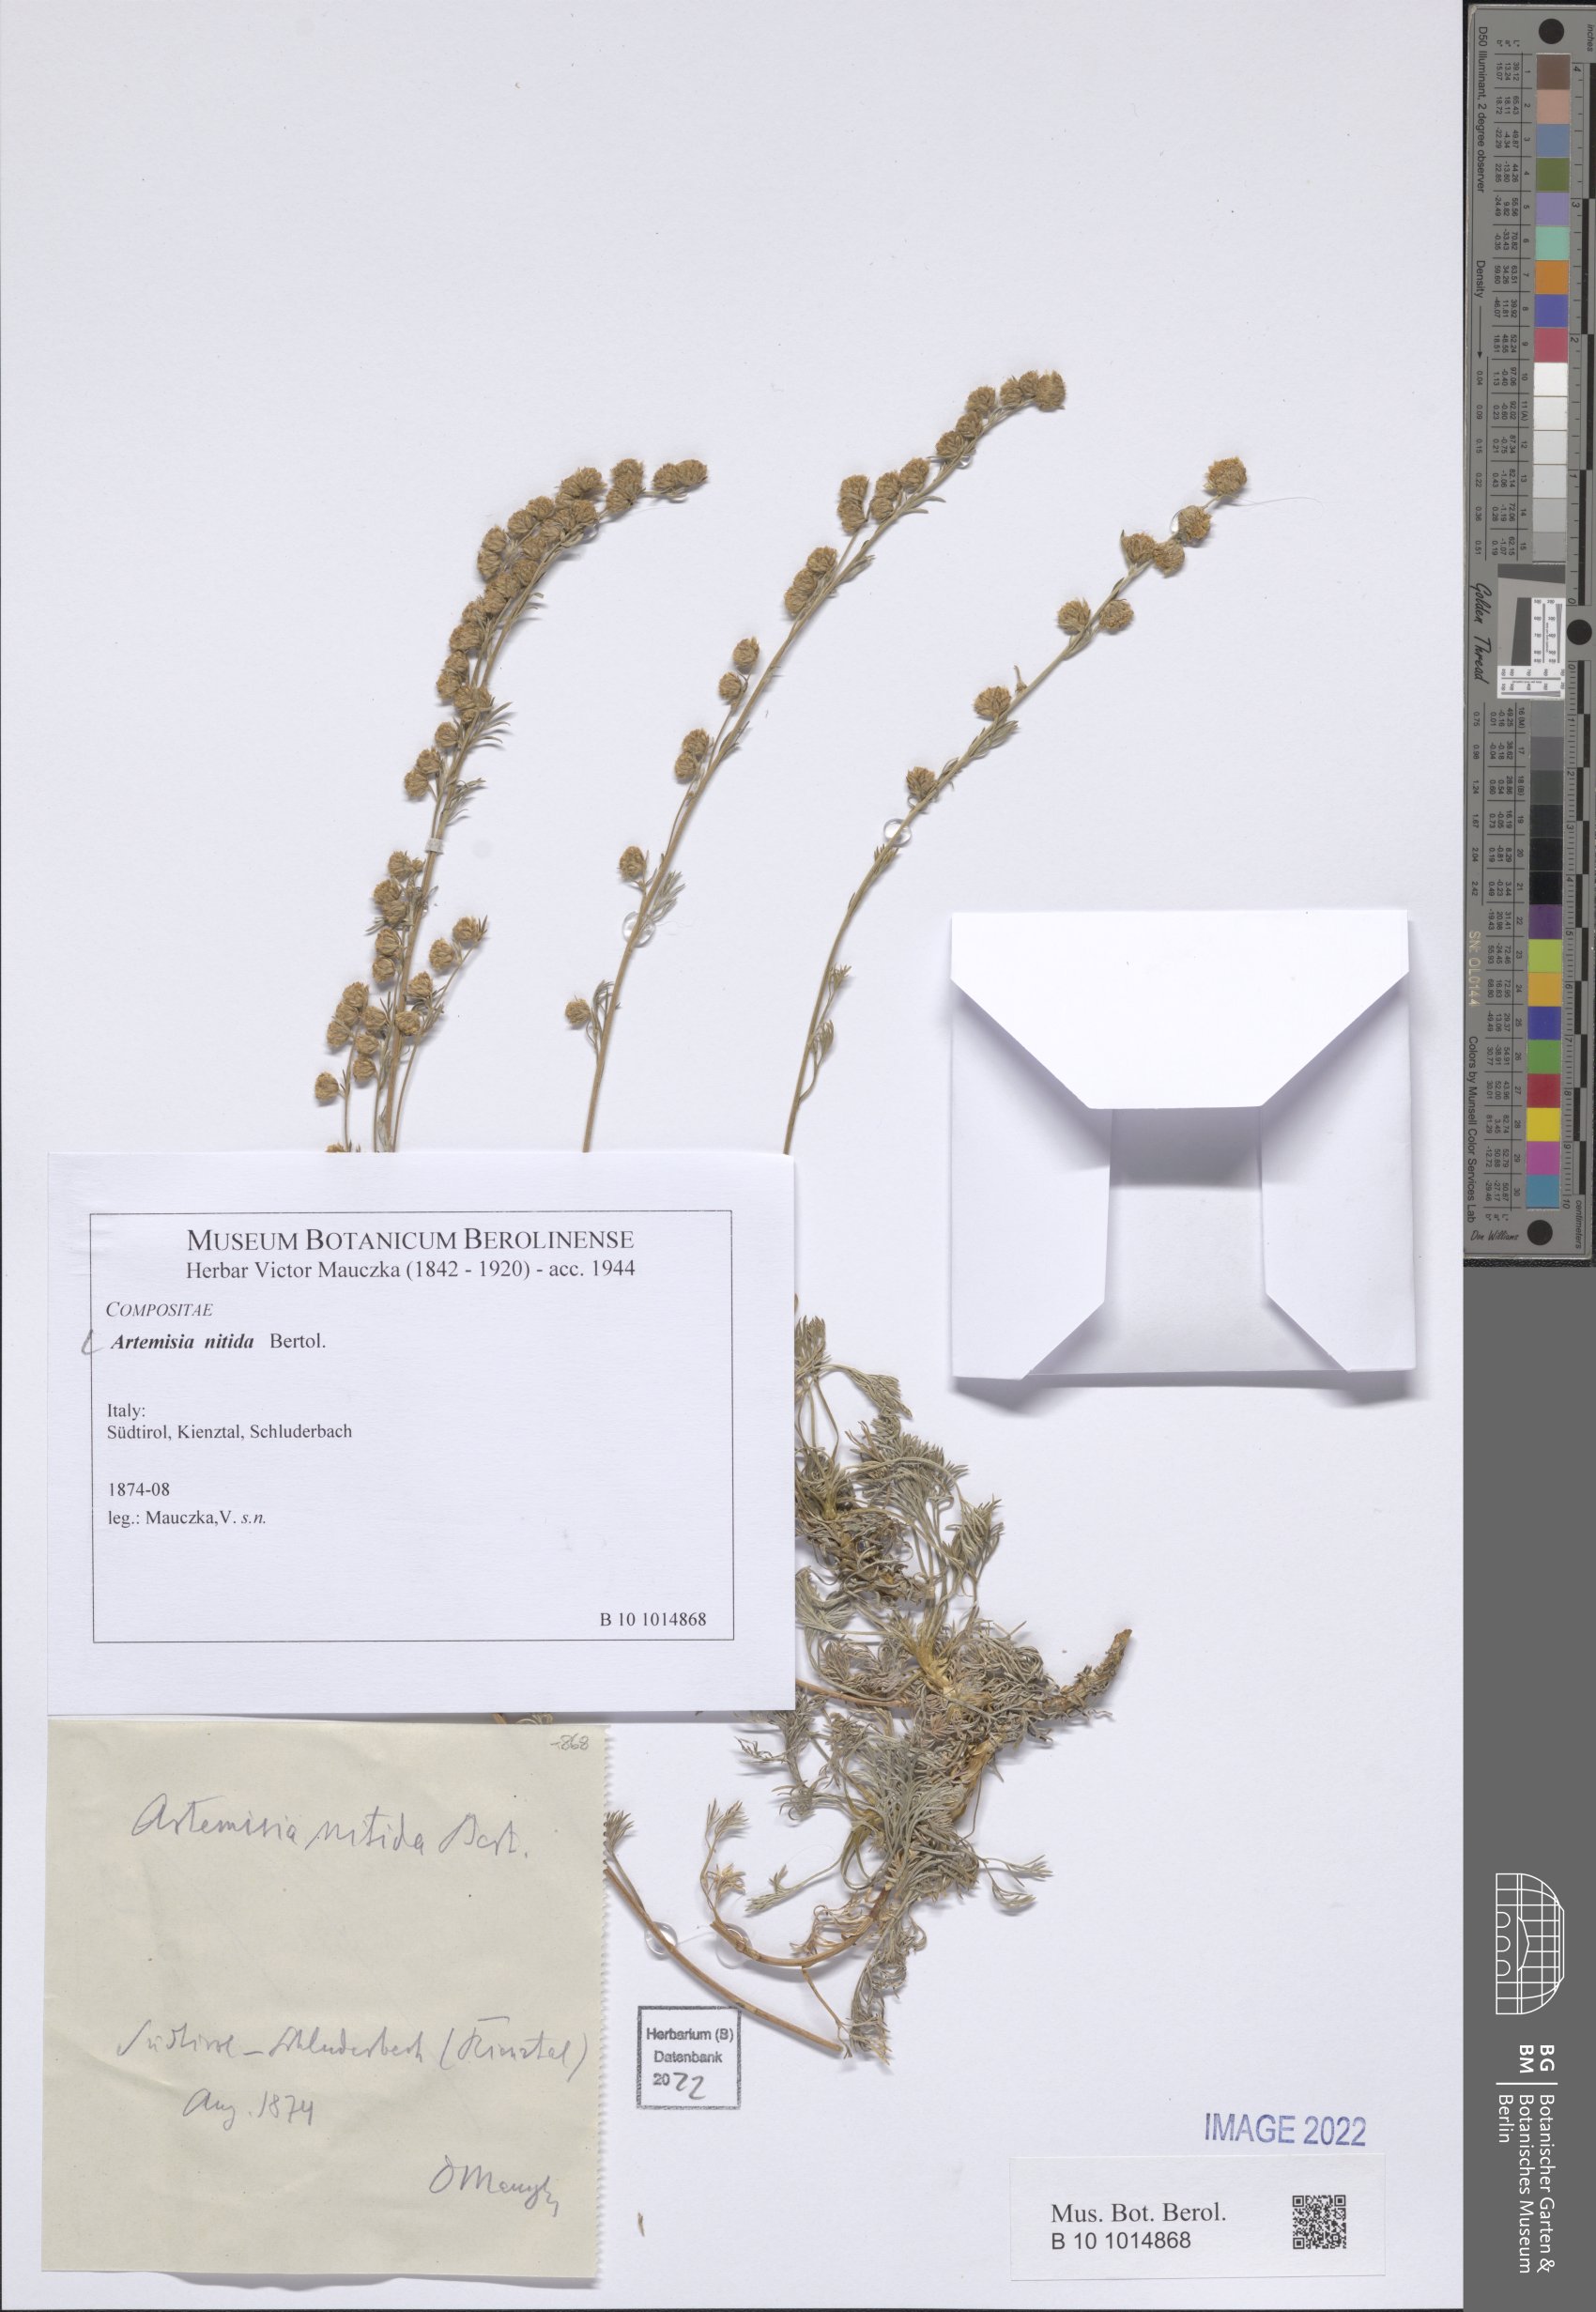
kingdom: Plantae
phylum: Tracheophyta
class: Magnoliopsida
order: Asterales
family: Asteraceae
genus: Artemisia
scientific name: Artemisia nitida
